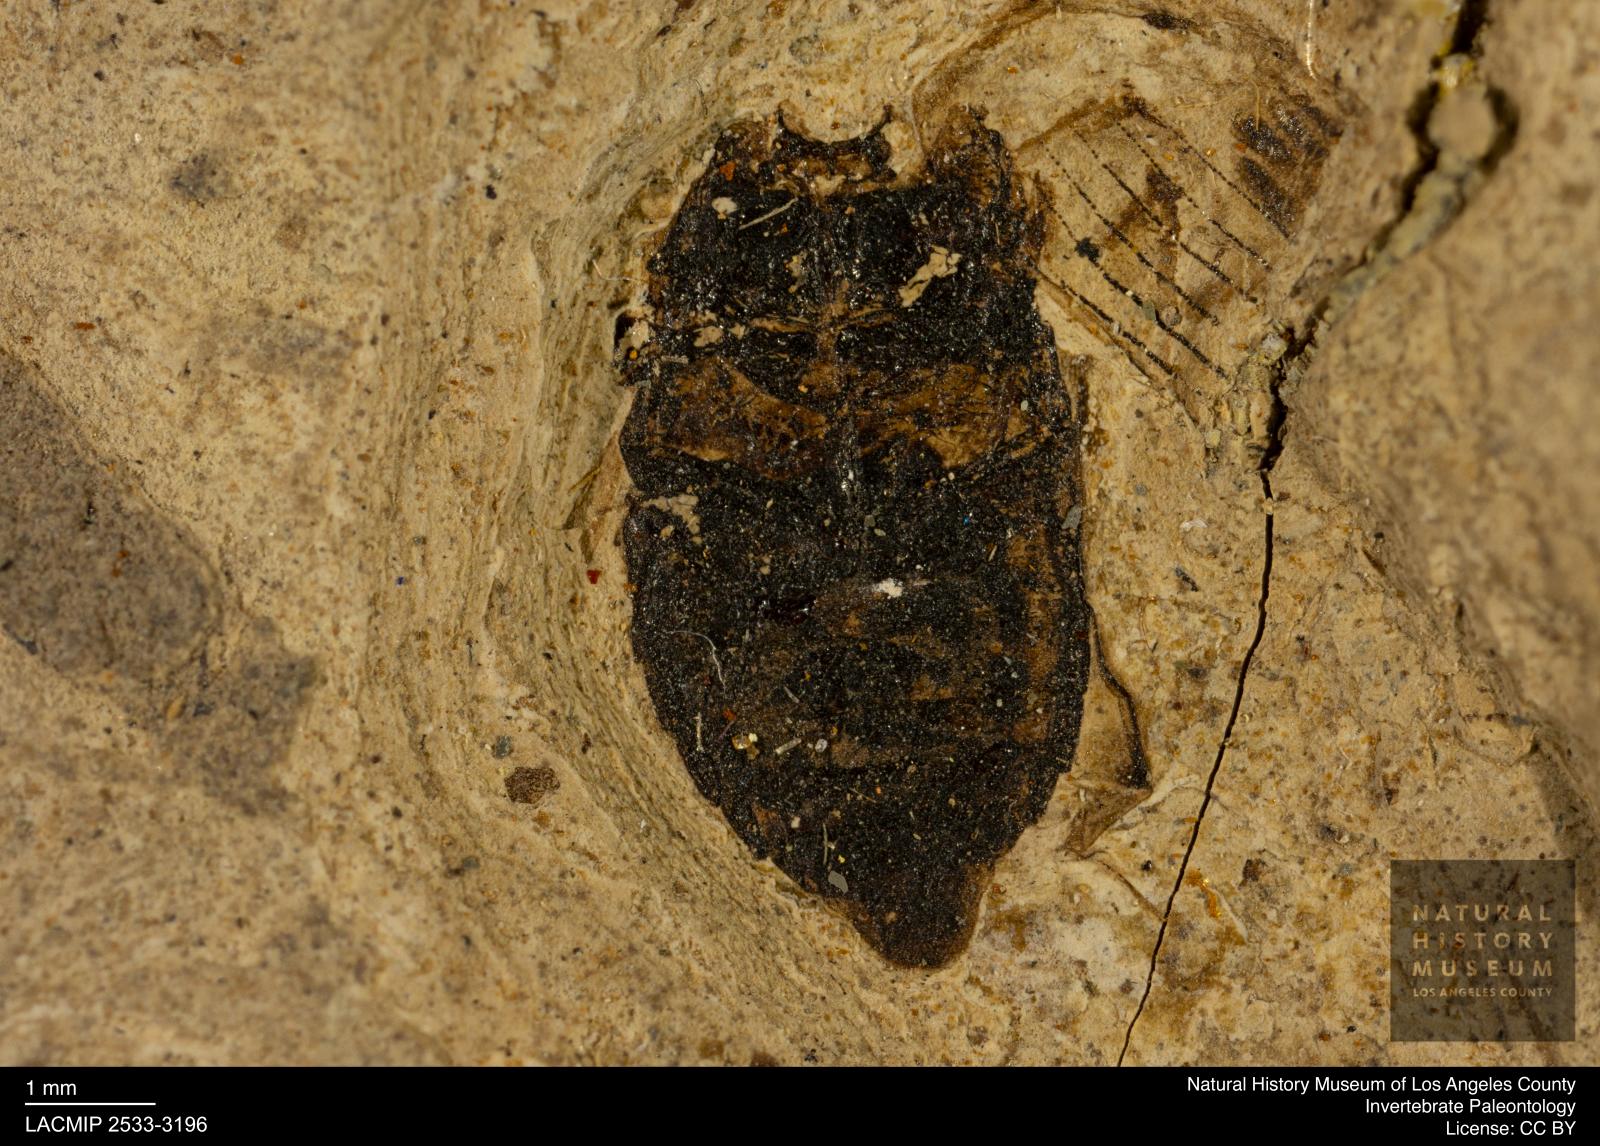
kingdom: Animalia
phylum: Arthropoda
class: Insecta
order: Coleoptera
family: Hydrophilidae
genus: Berosus
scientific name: Berosus morticinus
